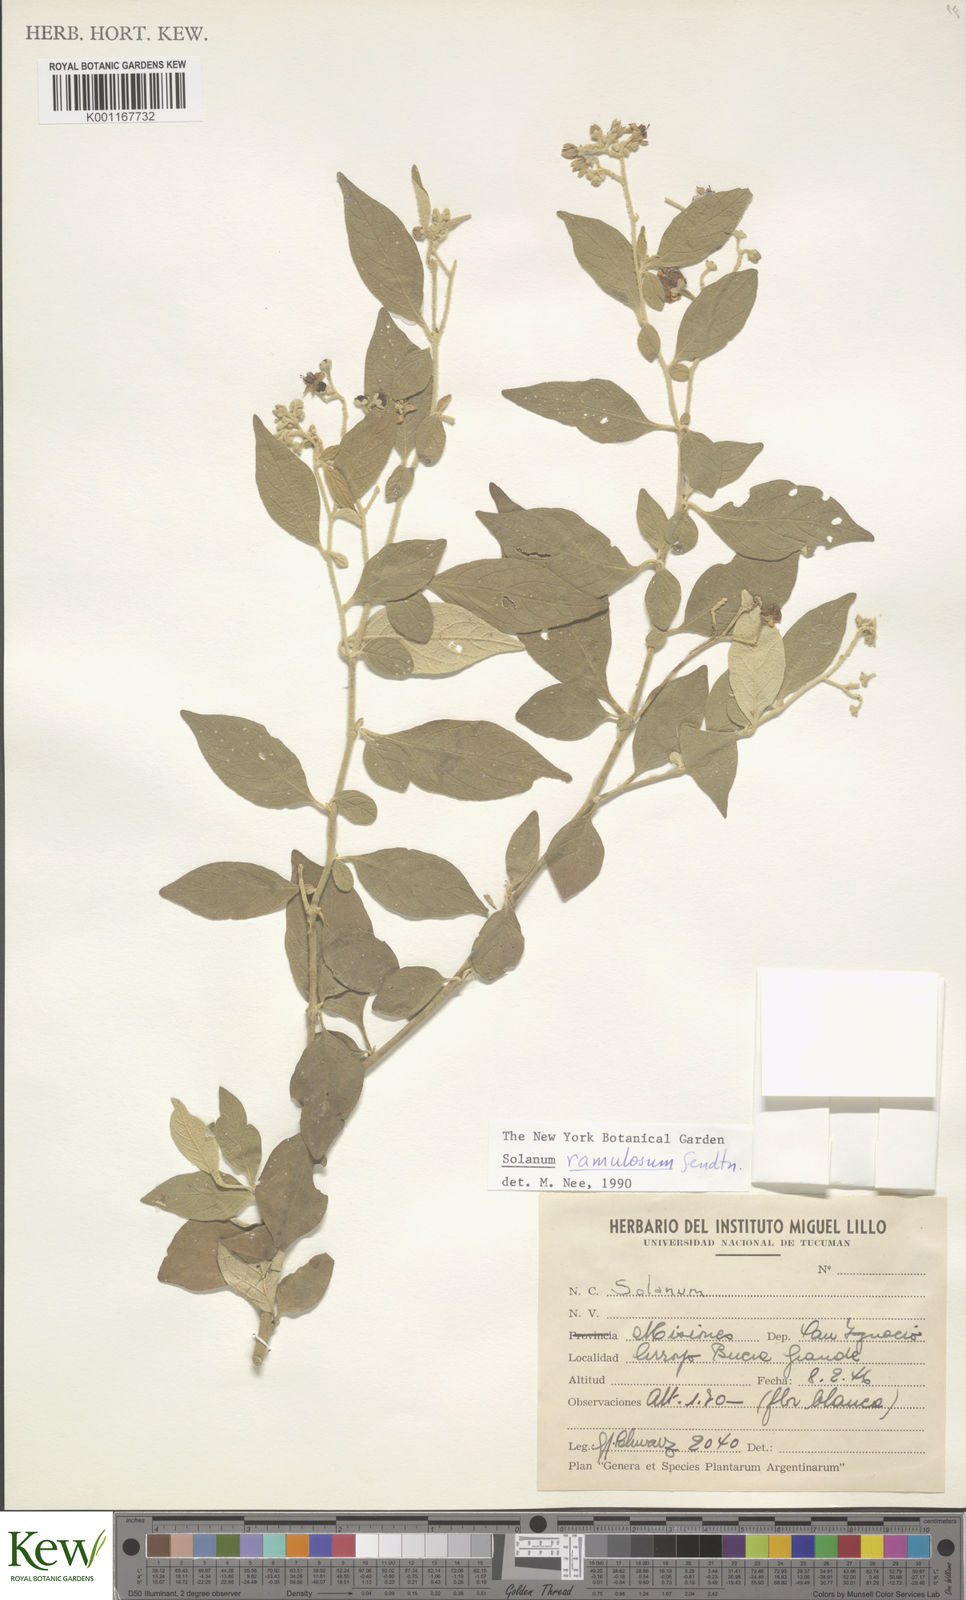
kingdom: Plantae
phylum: Tracheophyta
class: Magnoliopsida
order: Solanales
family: Solanaceae
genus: Solanum
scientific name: Solanum ramulosum
